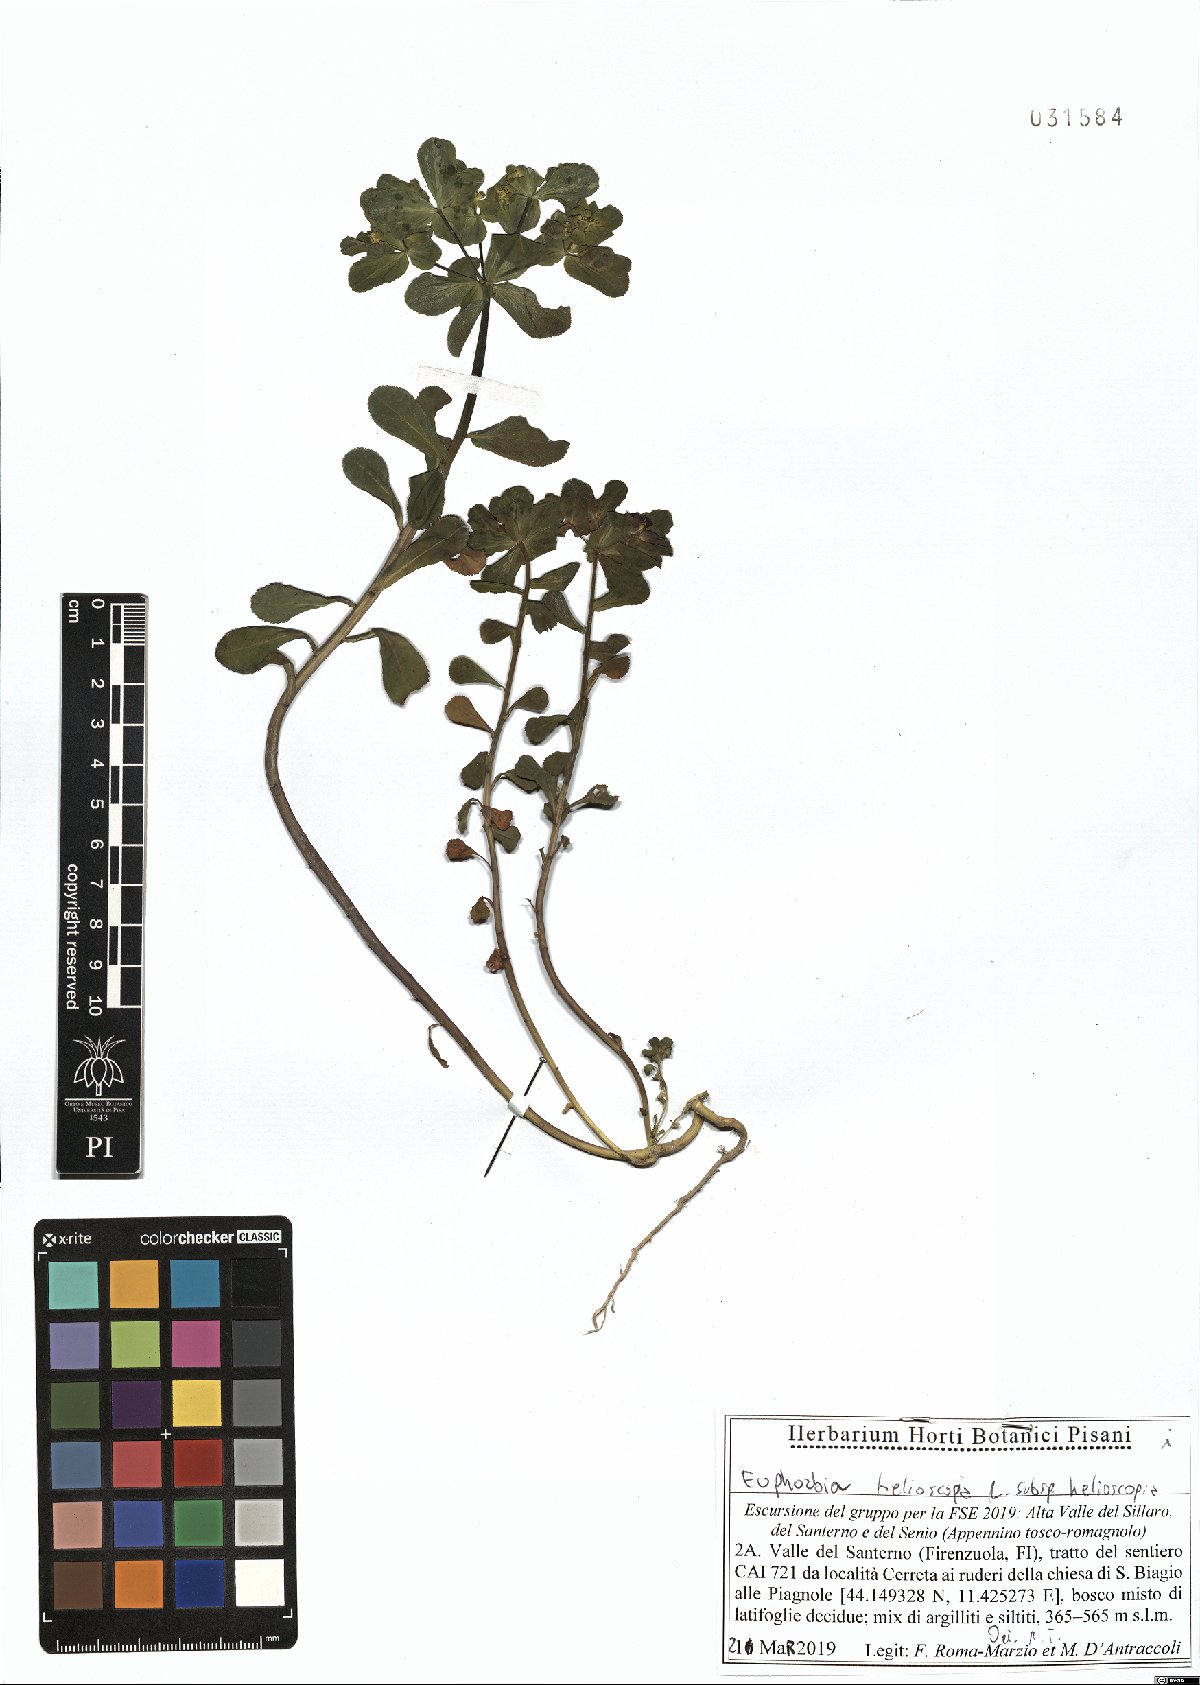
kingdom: Plantae
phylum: Tracheophyta
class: Magnoliopsida
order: Malpighiales
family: Euphorbiaceae
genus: Euphorbia
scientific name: Euphorbia helioscopia
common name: Sun spurge
